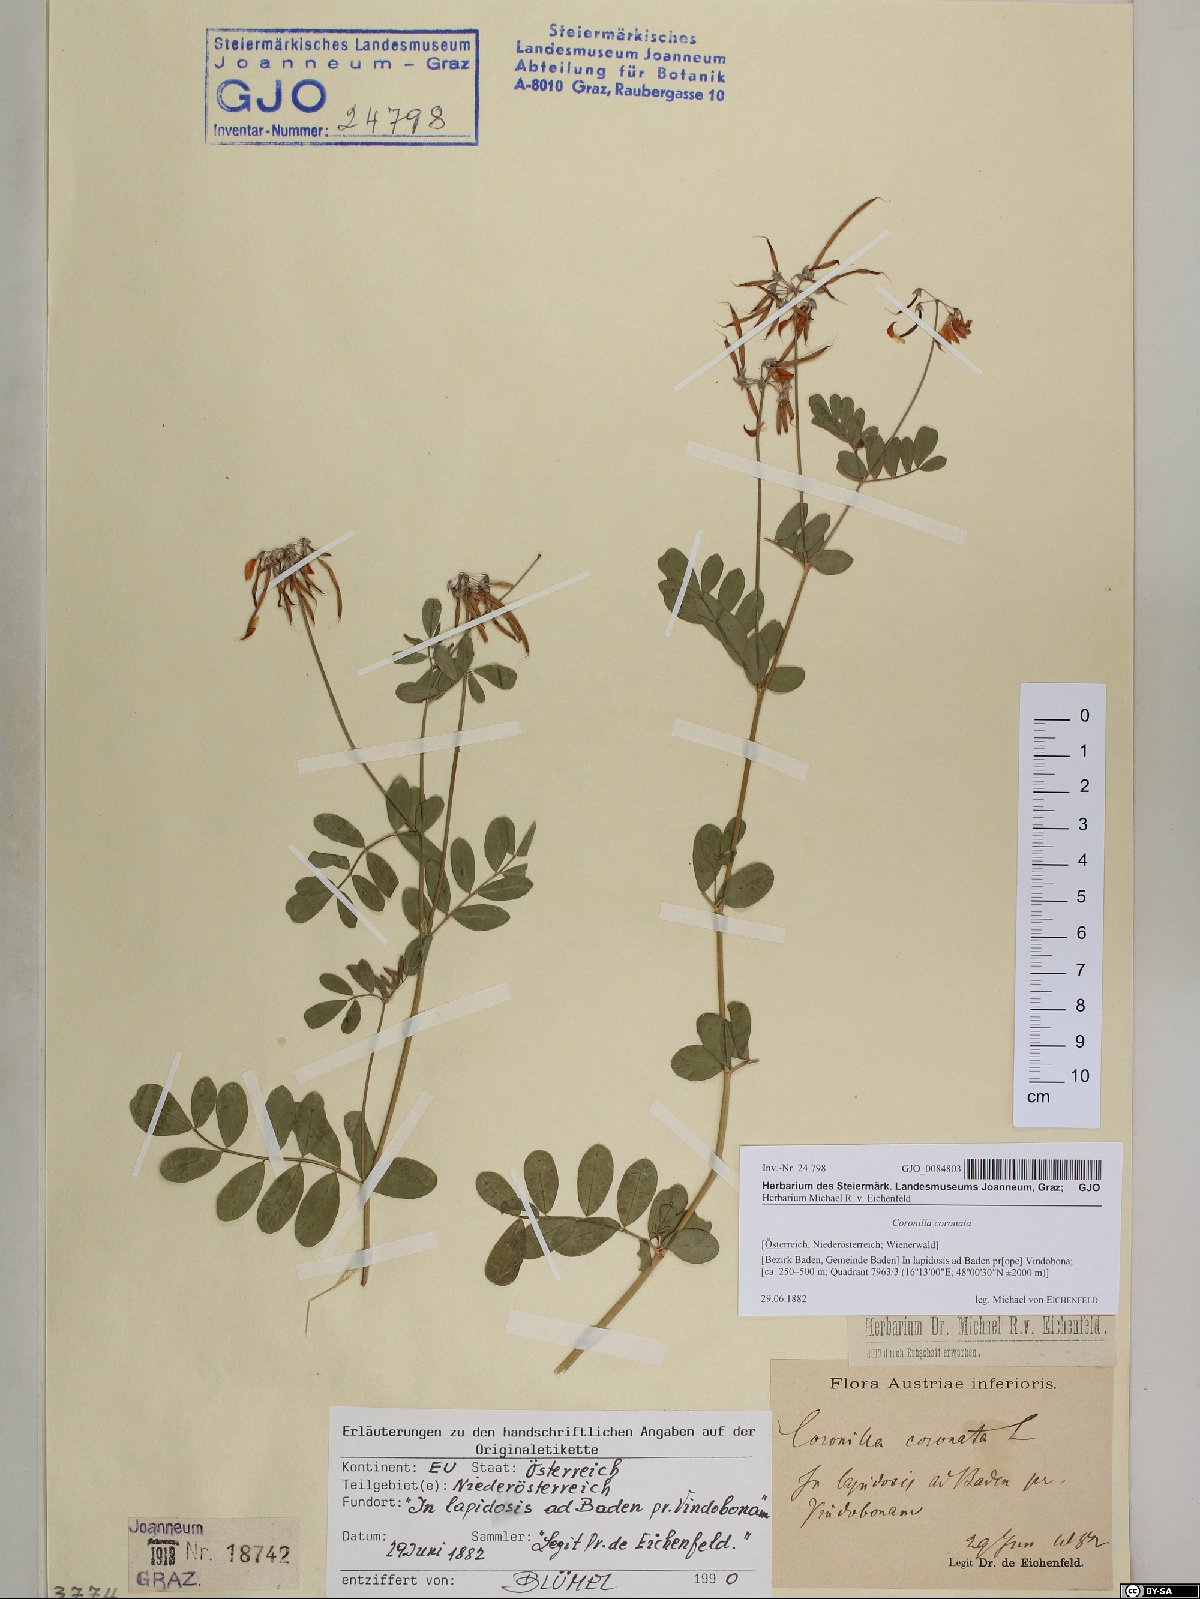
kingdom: Plantae
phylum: Tracheophyta
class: Magnoliopsida
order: Fabales
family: Fabaceae
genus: Coronilla
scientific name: Coronilla coronata
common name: Scorpion-vetch
